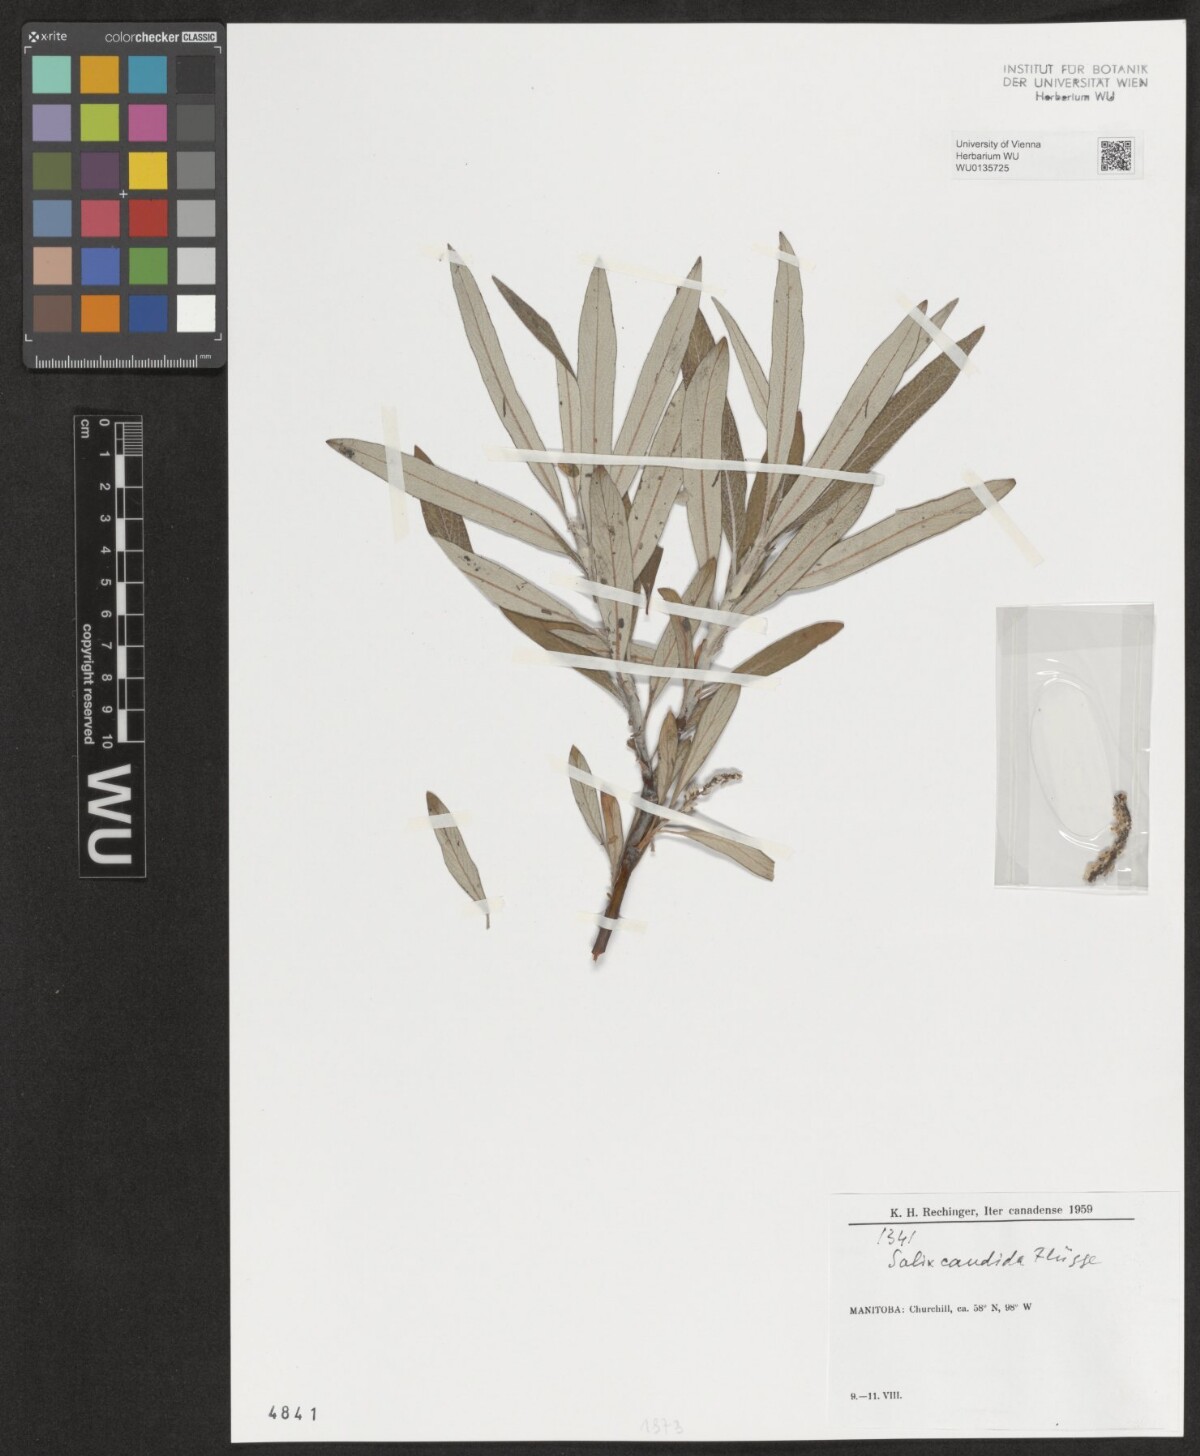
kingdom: Plantae
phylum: Tracheophyta
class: Magnoliopsida
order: Malpighiales
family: Salicaceae
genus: Salix
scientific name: Salix candida
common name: Hoary willow
